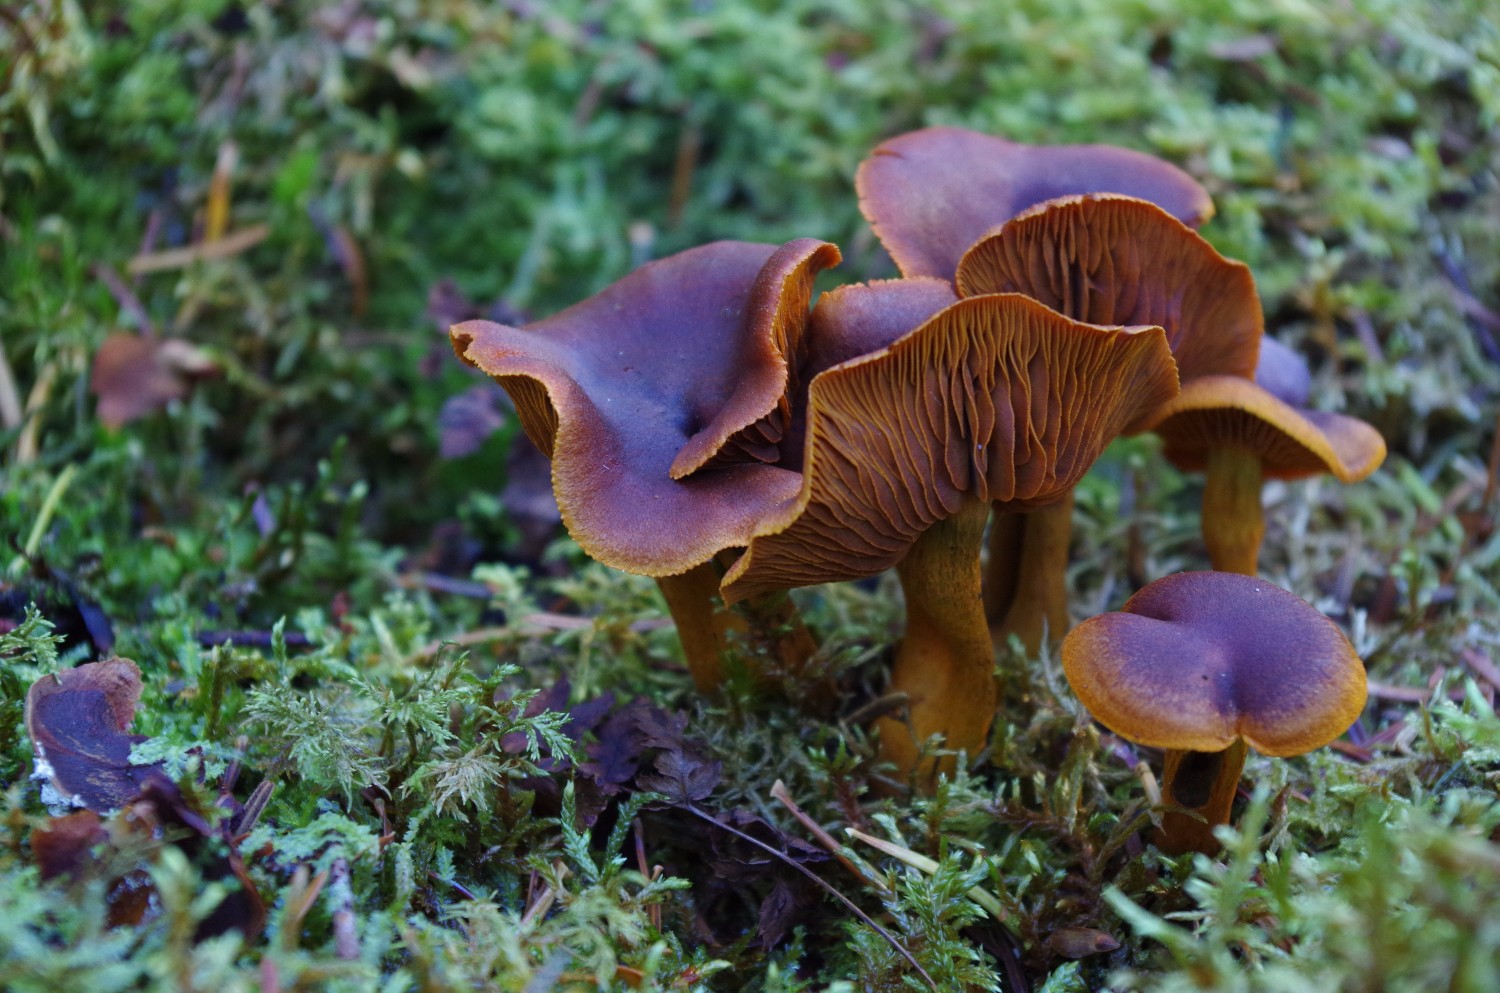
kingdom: Fungi
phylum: Basidiomycota
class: Agaricomycetes
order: Agaricales
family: Cortinariaceae
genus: Cortinarius
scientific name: Cortinarius malicorius
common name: grønkødet slørhat
